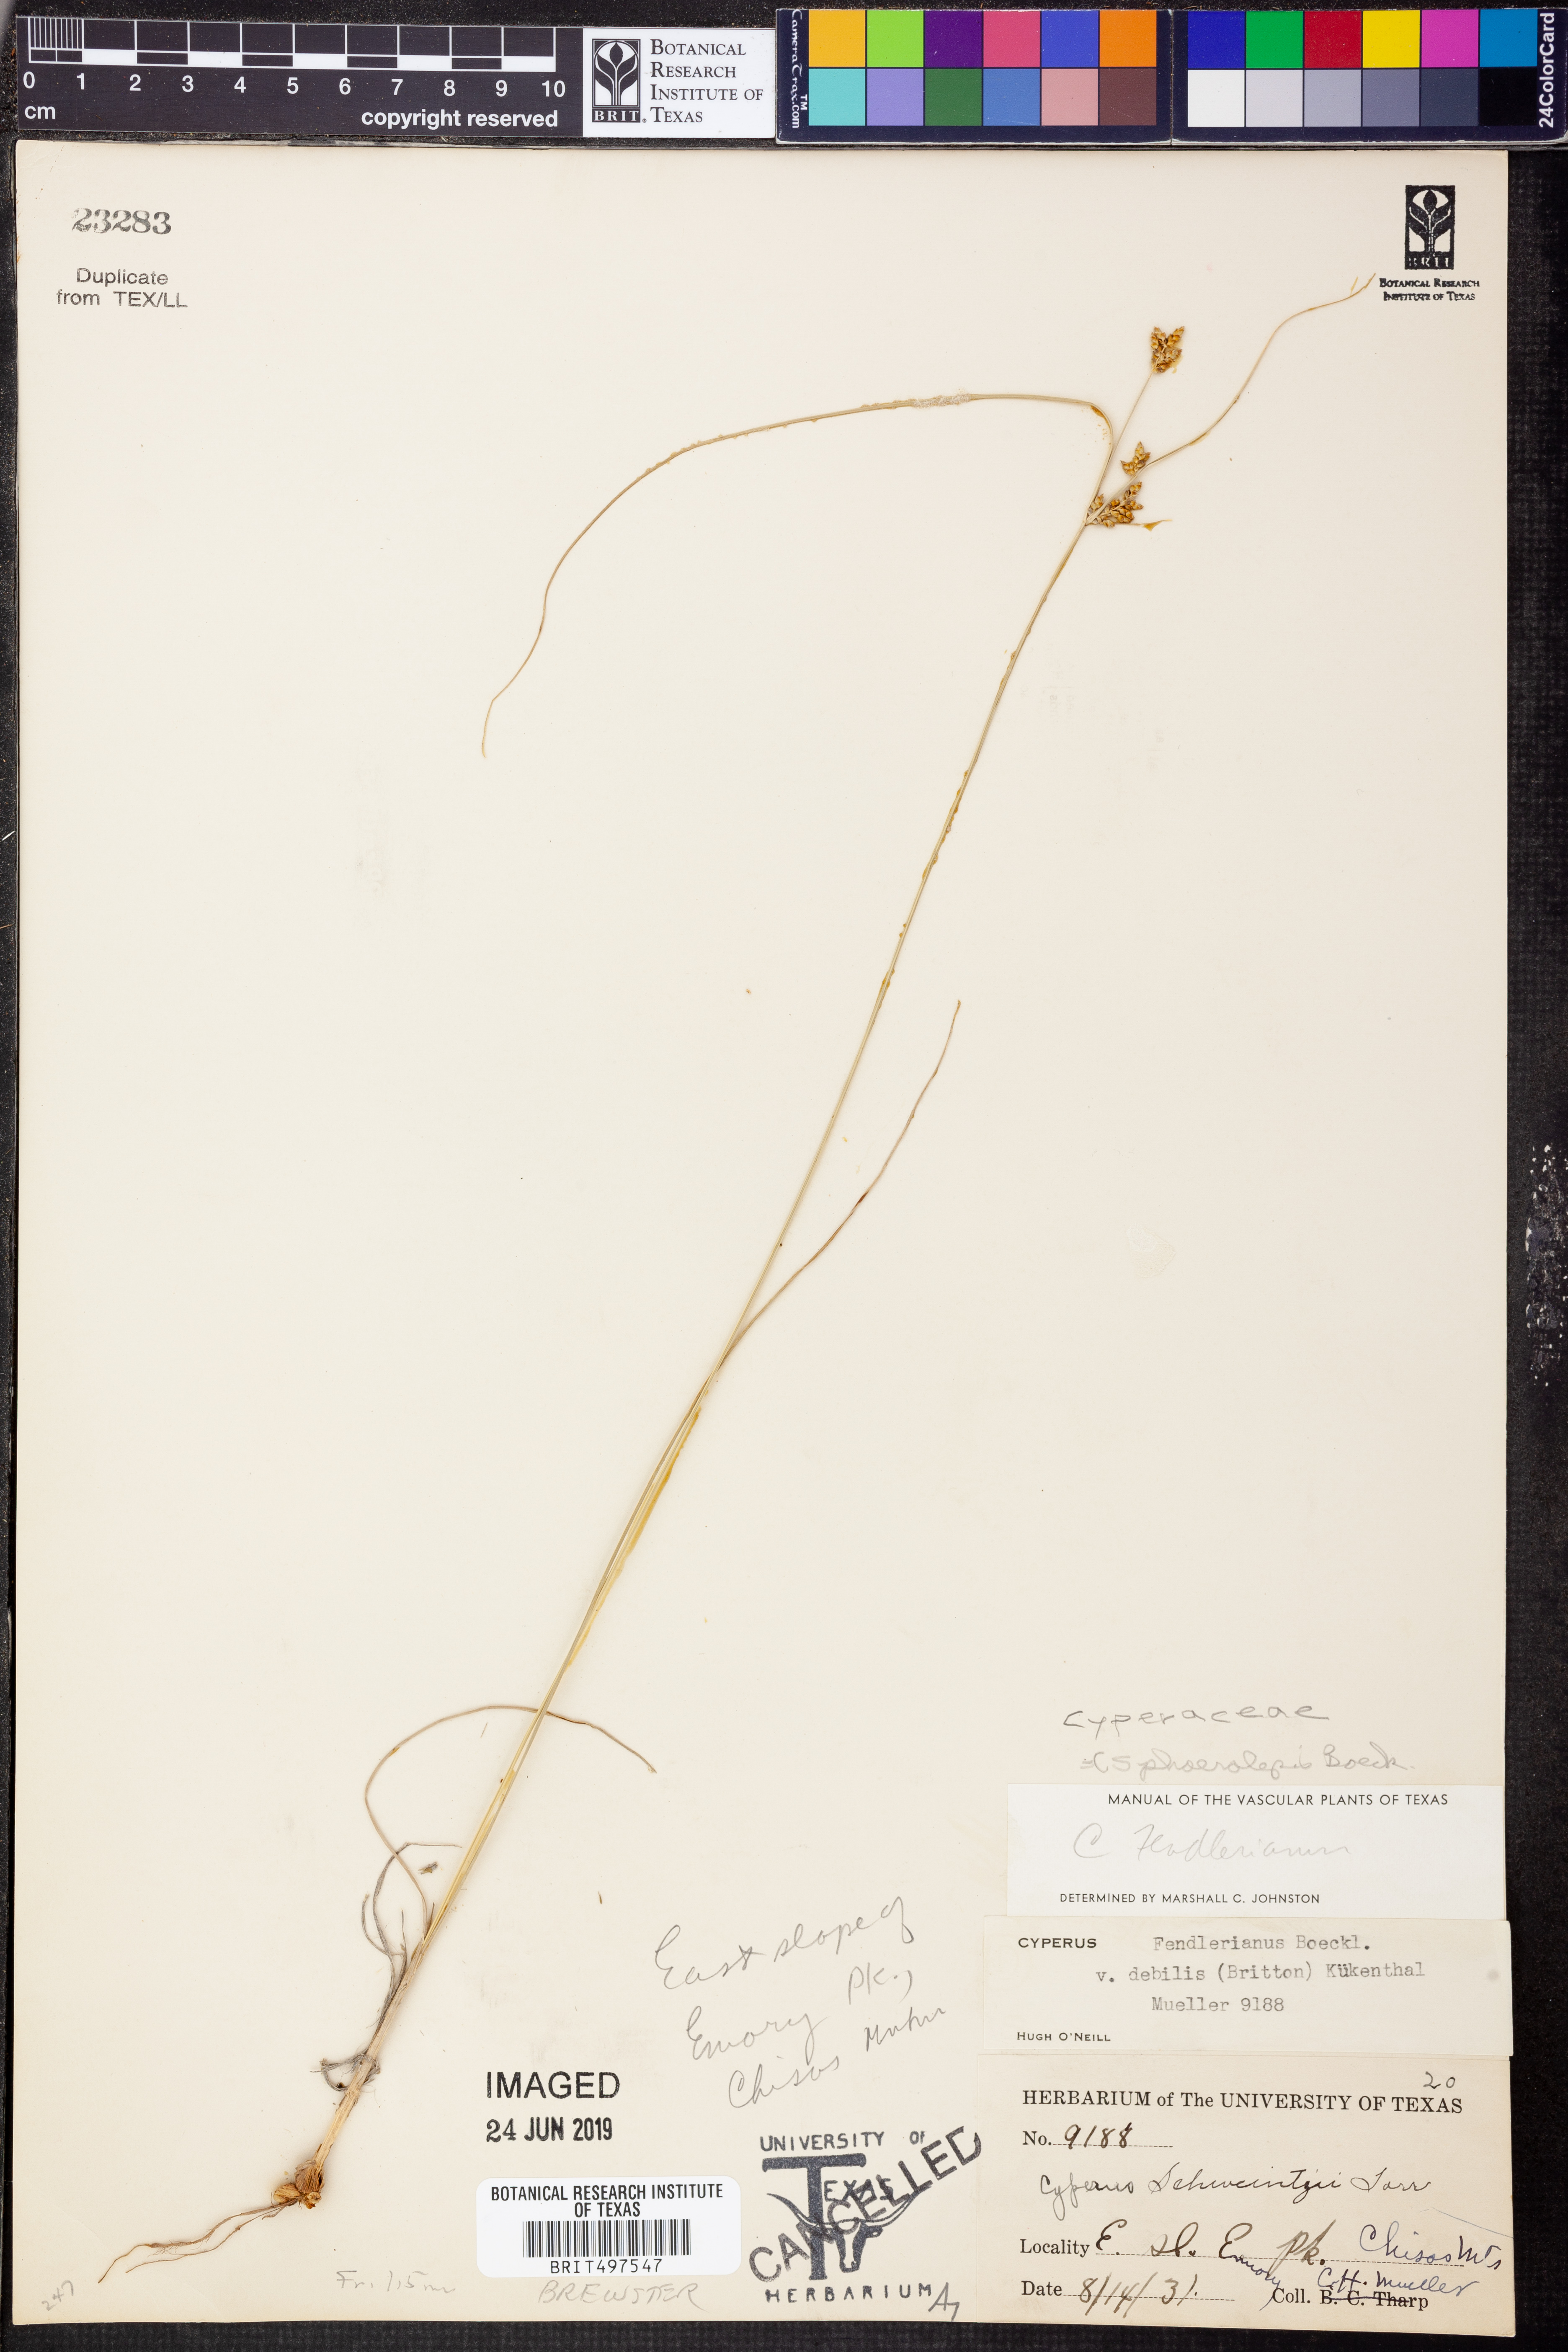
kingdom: Plantae
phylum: Tracheophyta
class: Liliopsida
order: Poales
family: Cyperaceae
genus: Cyperus
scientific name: Cyperus sphaerolepis
